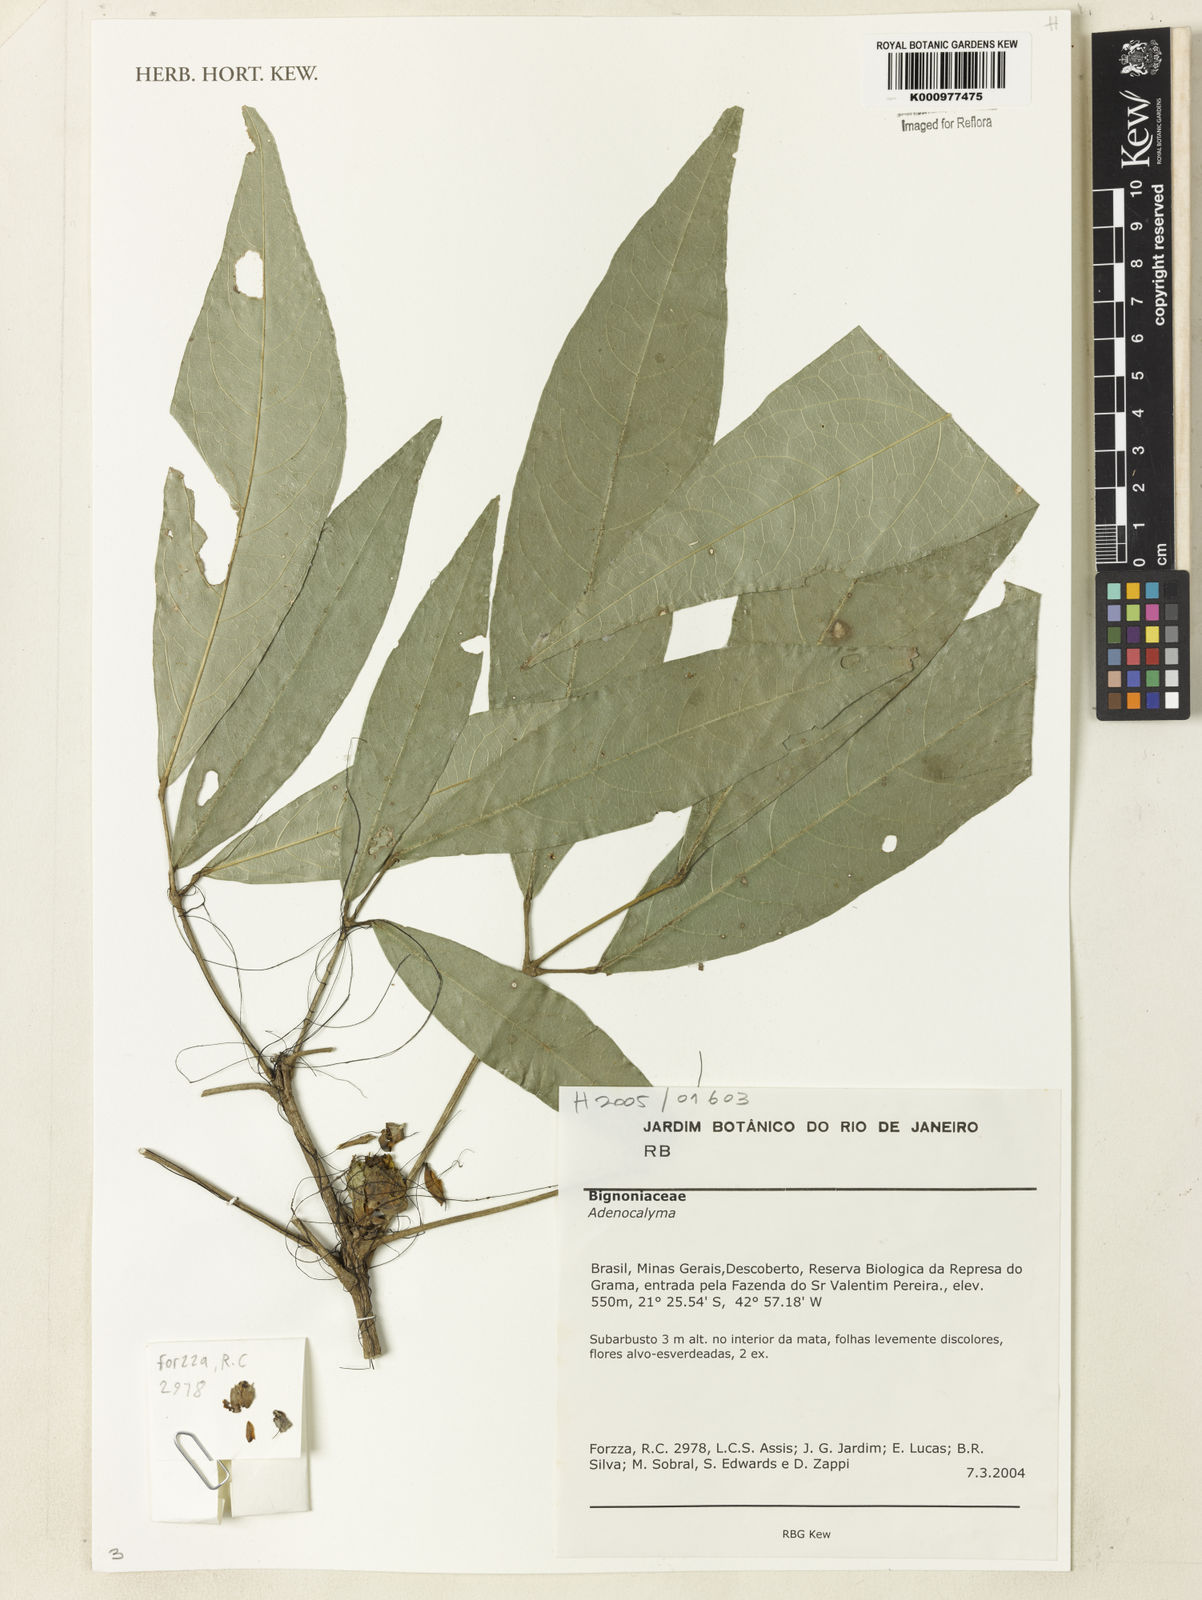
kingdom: Plantae
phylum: Tracheophyta
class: Magnoliopsida
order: Lamiales
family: Bignoniaceae
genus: Anemopaegma
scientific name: Anemopaegma
